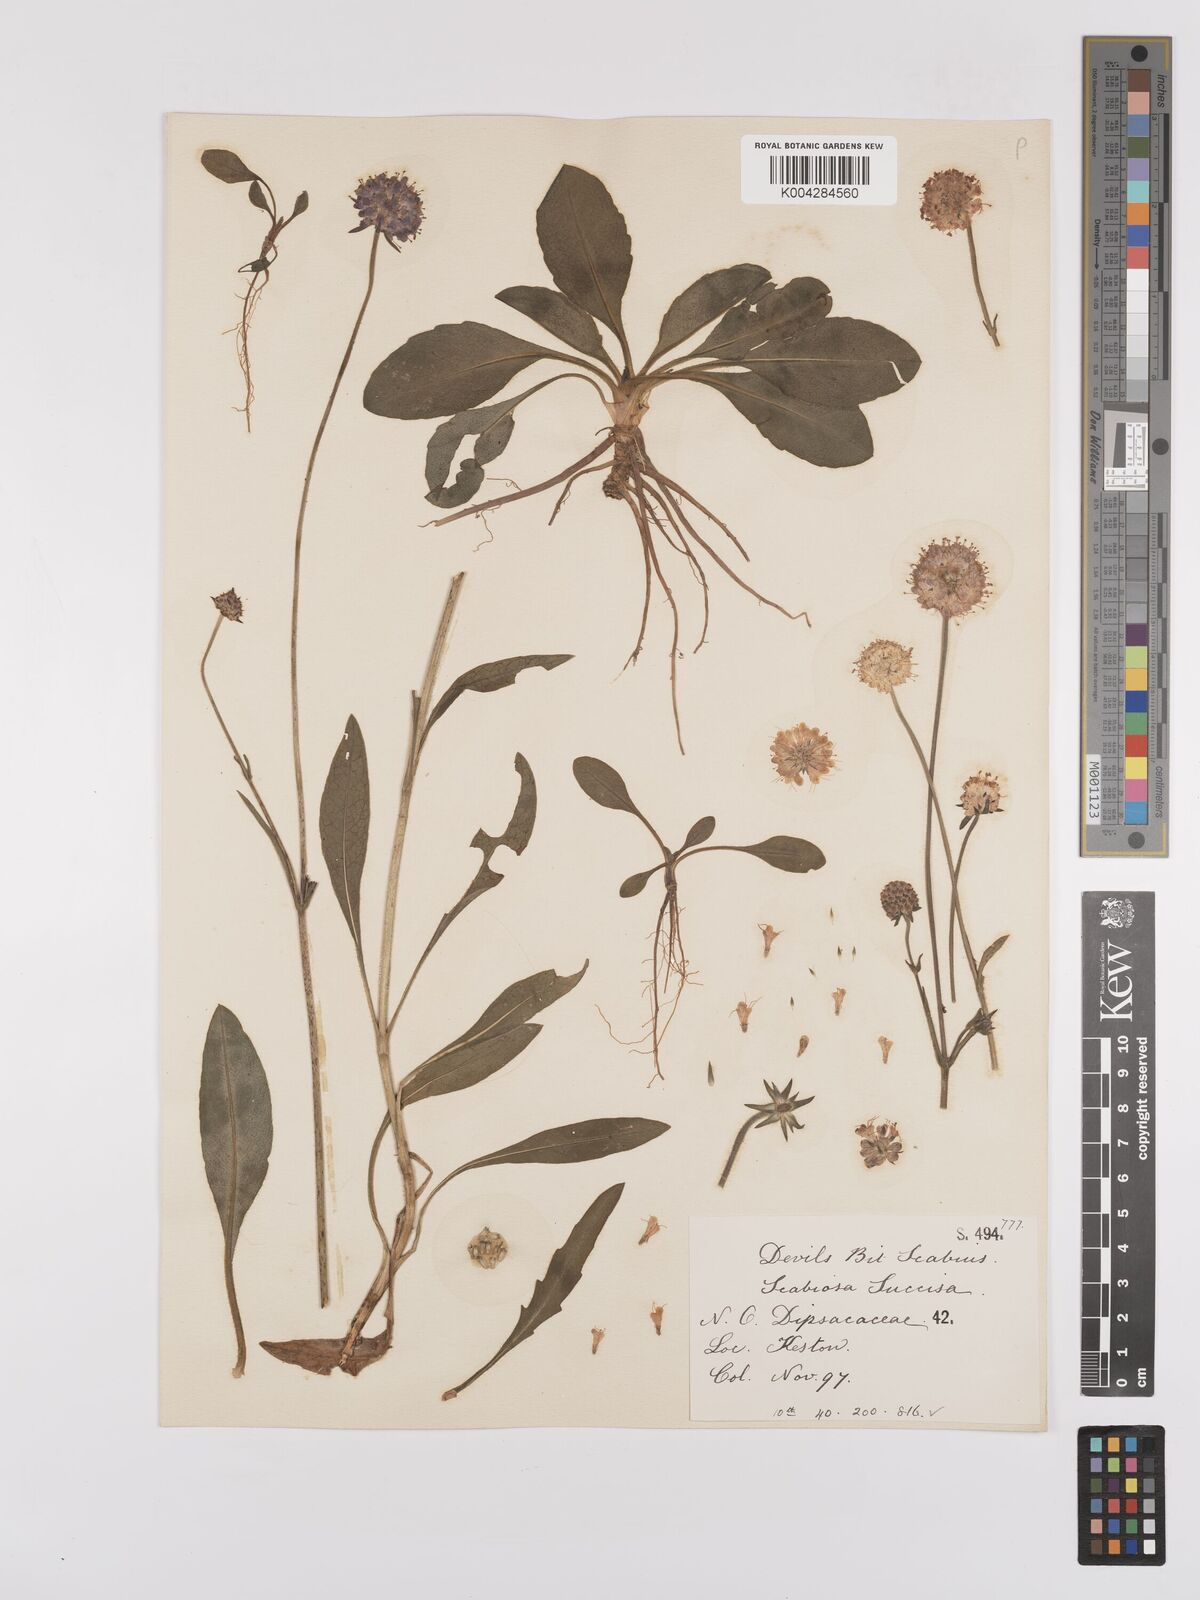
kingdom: Plantae
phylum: Tracheophyta
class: Magnoliopsida
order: Dipsacales
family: Caprifoliaceae
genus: Succisa
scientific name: Succisa pratensis
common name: Devil's-bit
